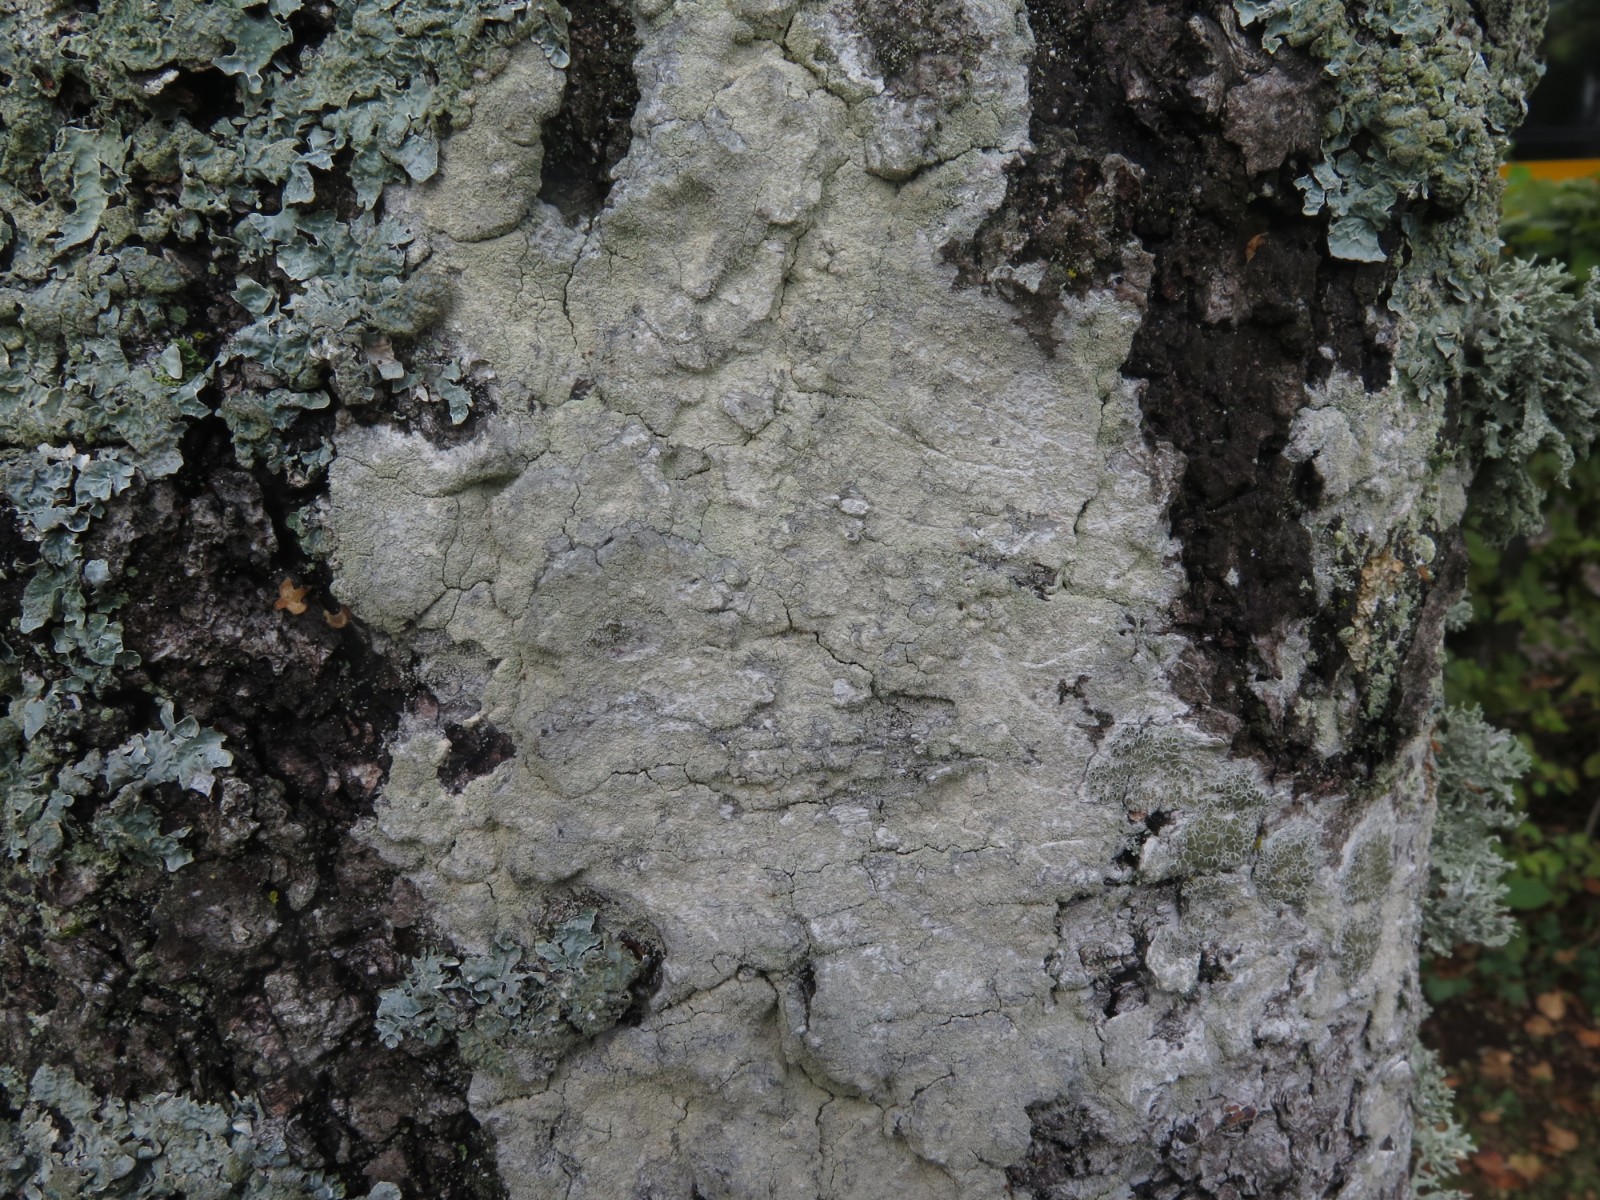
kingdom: Fungi
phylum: Ascomycota
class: Lecanoromycetes
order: Ostropales
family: Phlyctidaceae
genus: Phlyctis
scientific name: Phlyctis argena
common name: almindelig sølvlav
